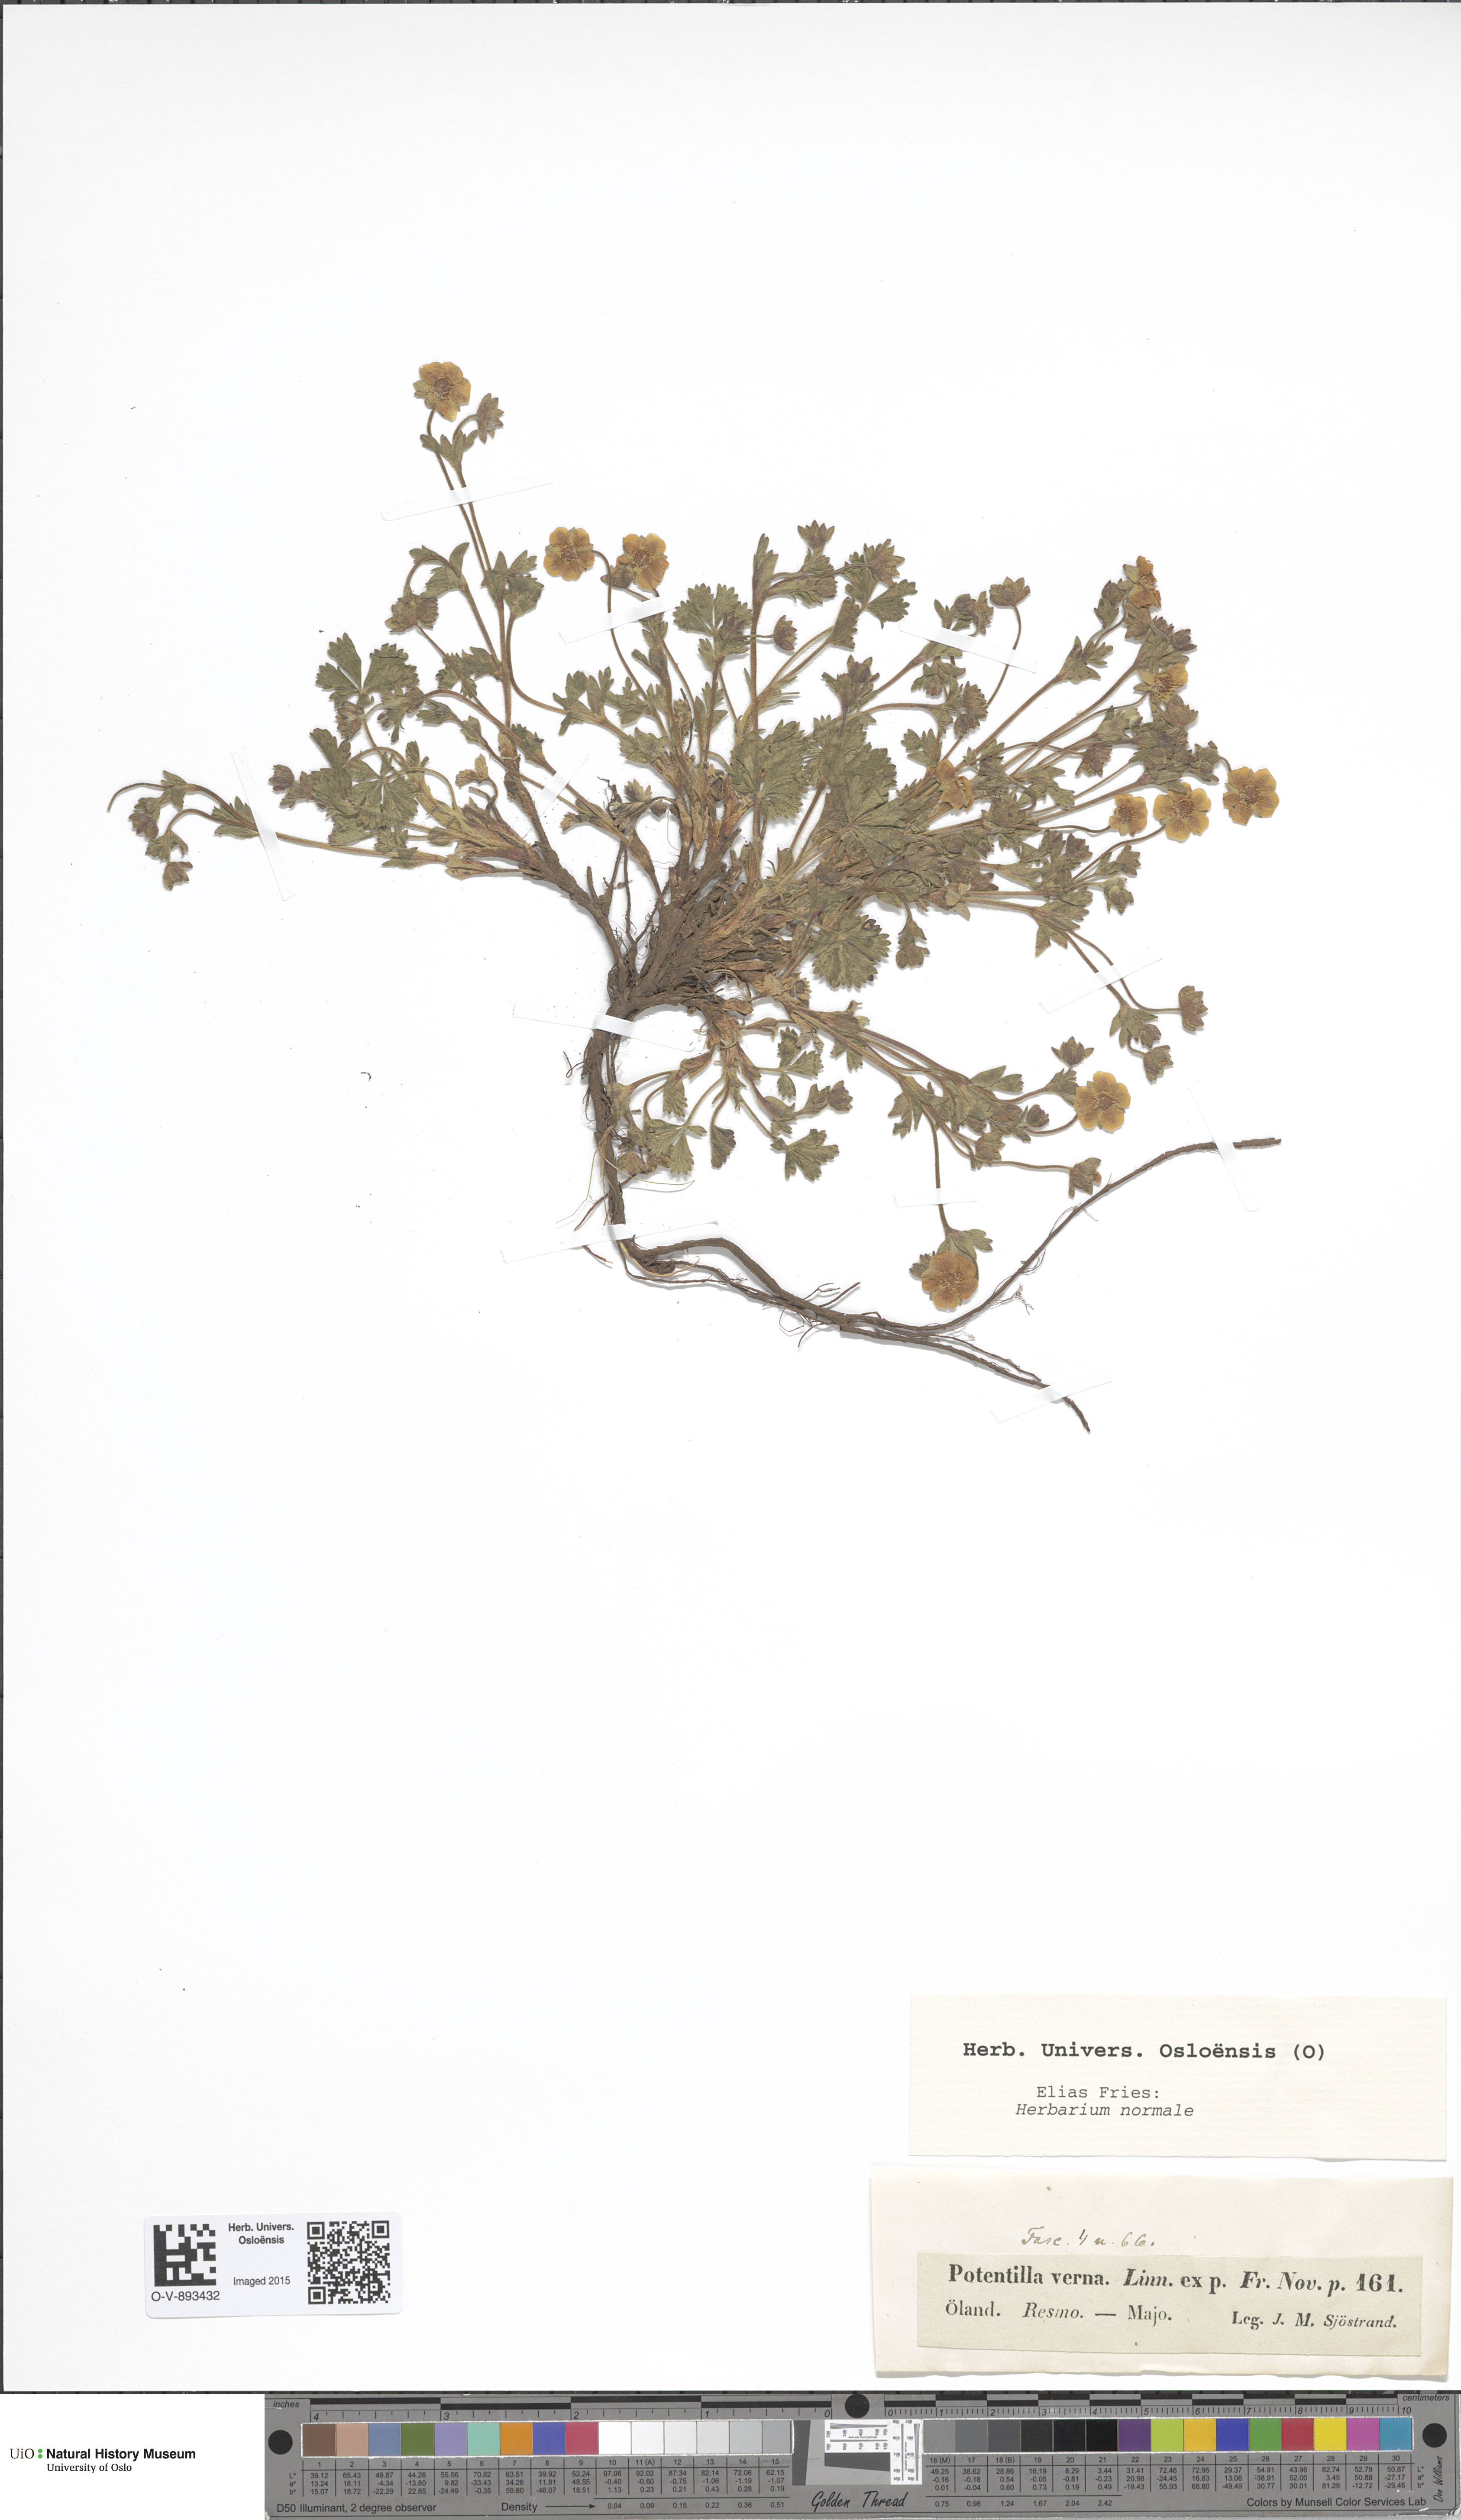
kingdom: Plantae
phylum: Tracheophyta
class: Magnoliopsida
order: Rosales
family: Rosaceae
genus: Potentilla
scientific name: Potentilla verna
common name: Spring cinquefoil
